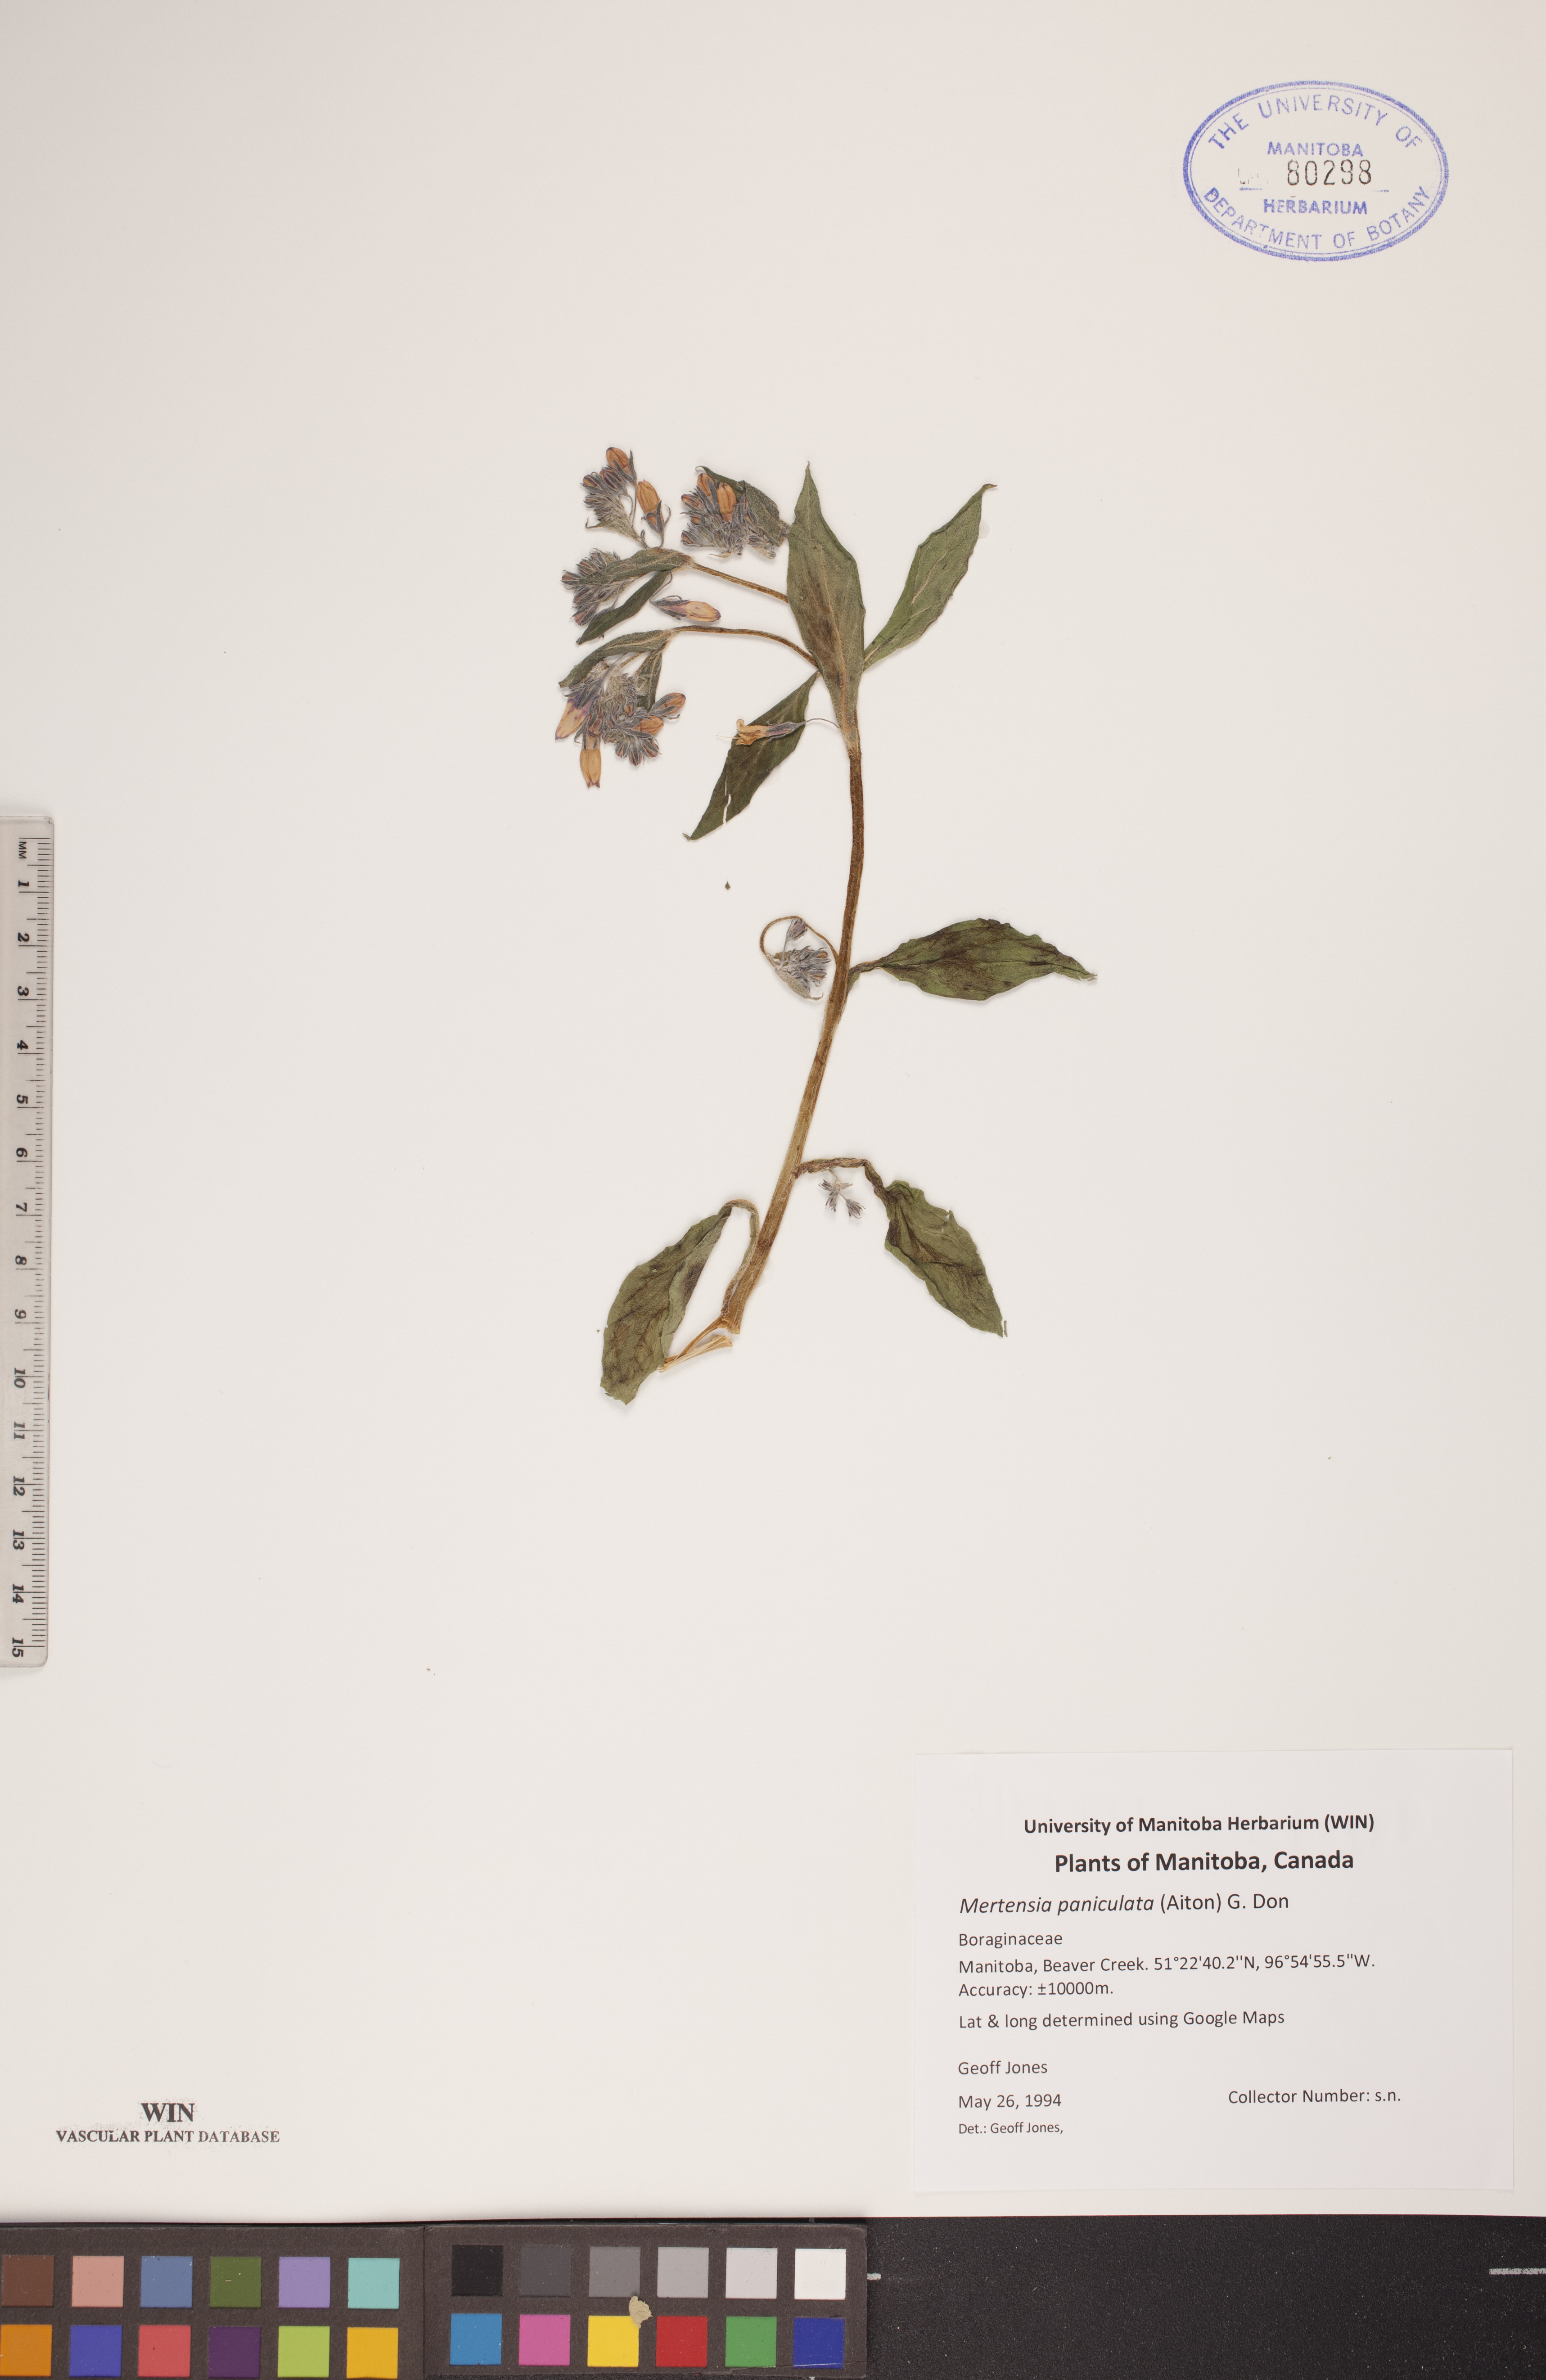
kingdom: Plantae
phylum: Tracheophyta
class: Magnoliopsida
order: Boraginales
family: Boraginaceae
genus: Mertensia
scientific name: Mertensia paniculata
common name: Panicled bluebells
